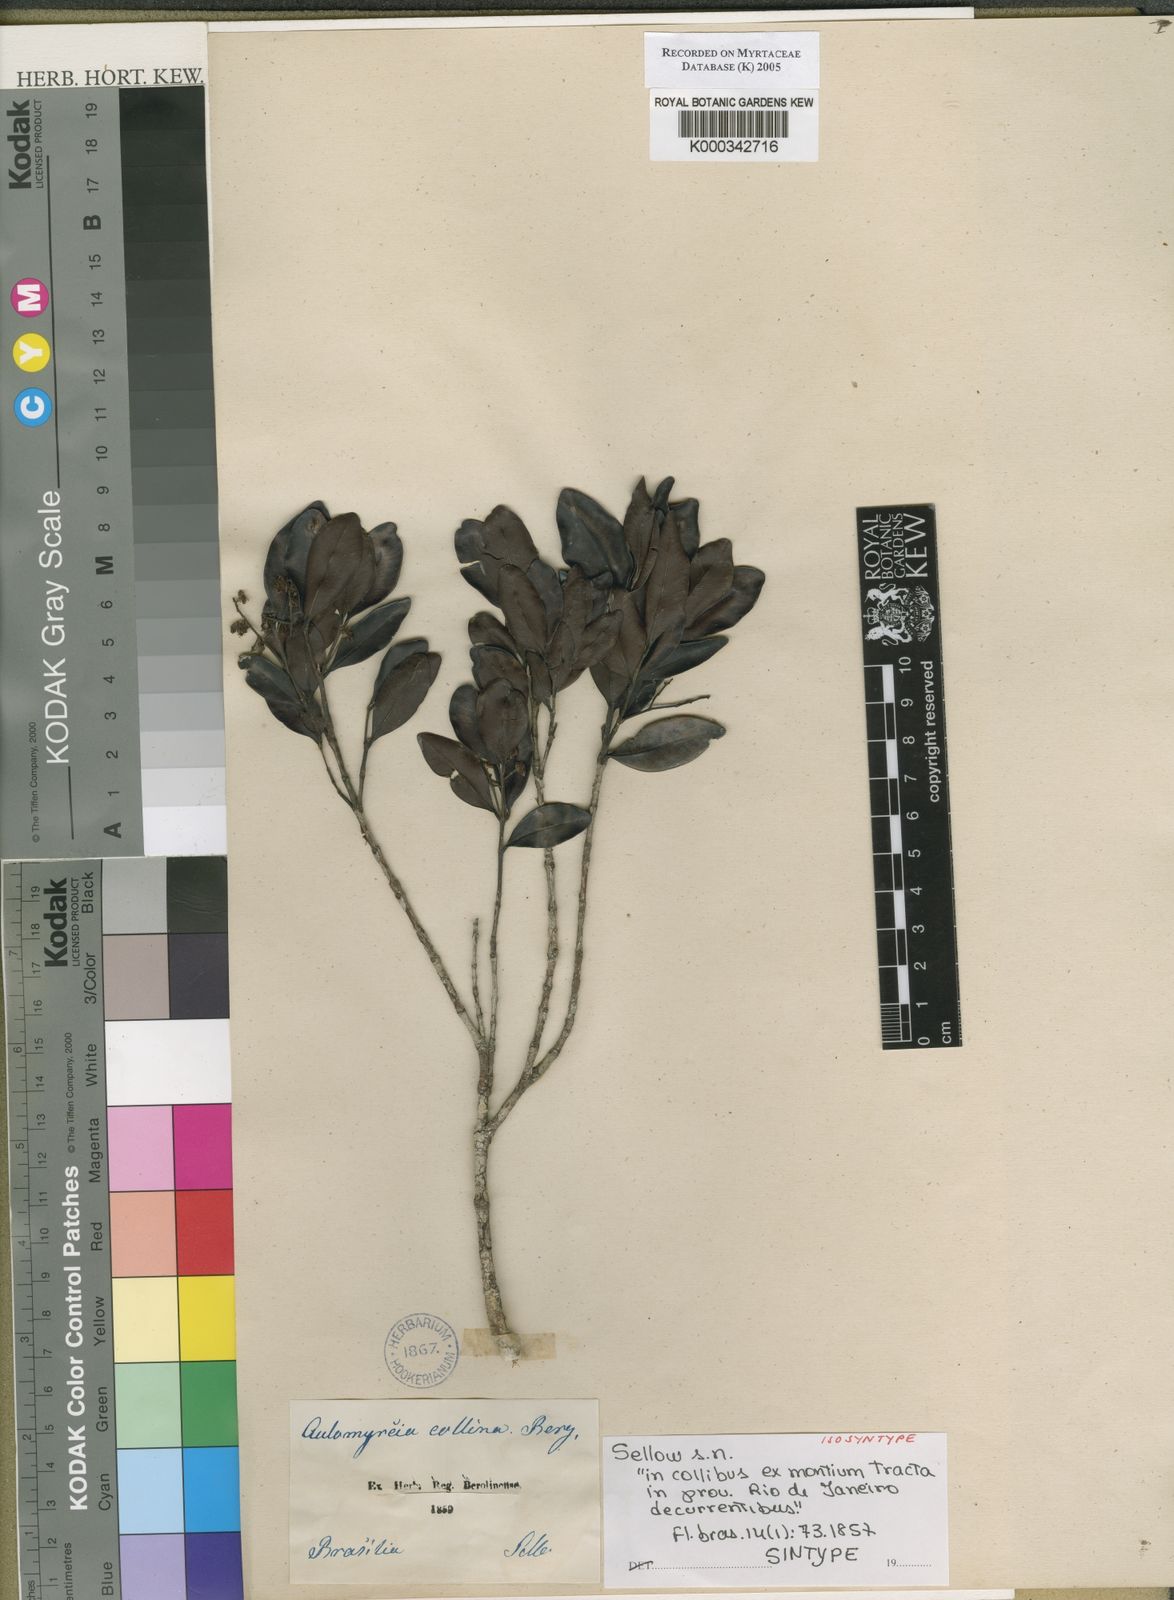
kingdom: Plantae
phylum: Tracheophyta
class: Magnoliopsida
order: Myrtales
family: Myrtaceae
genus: Myrcia
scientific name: Myrcia guianensis
